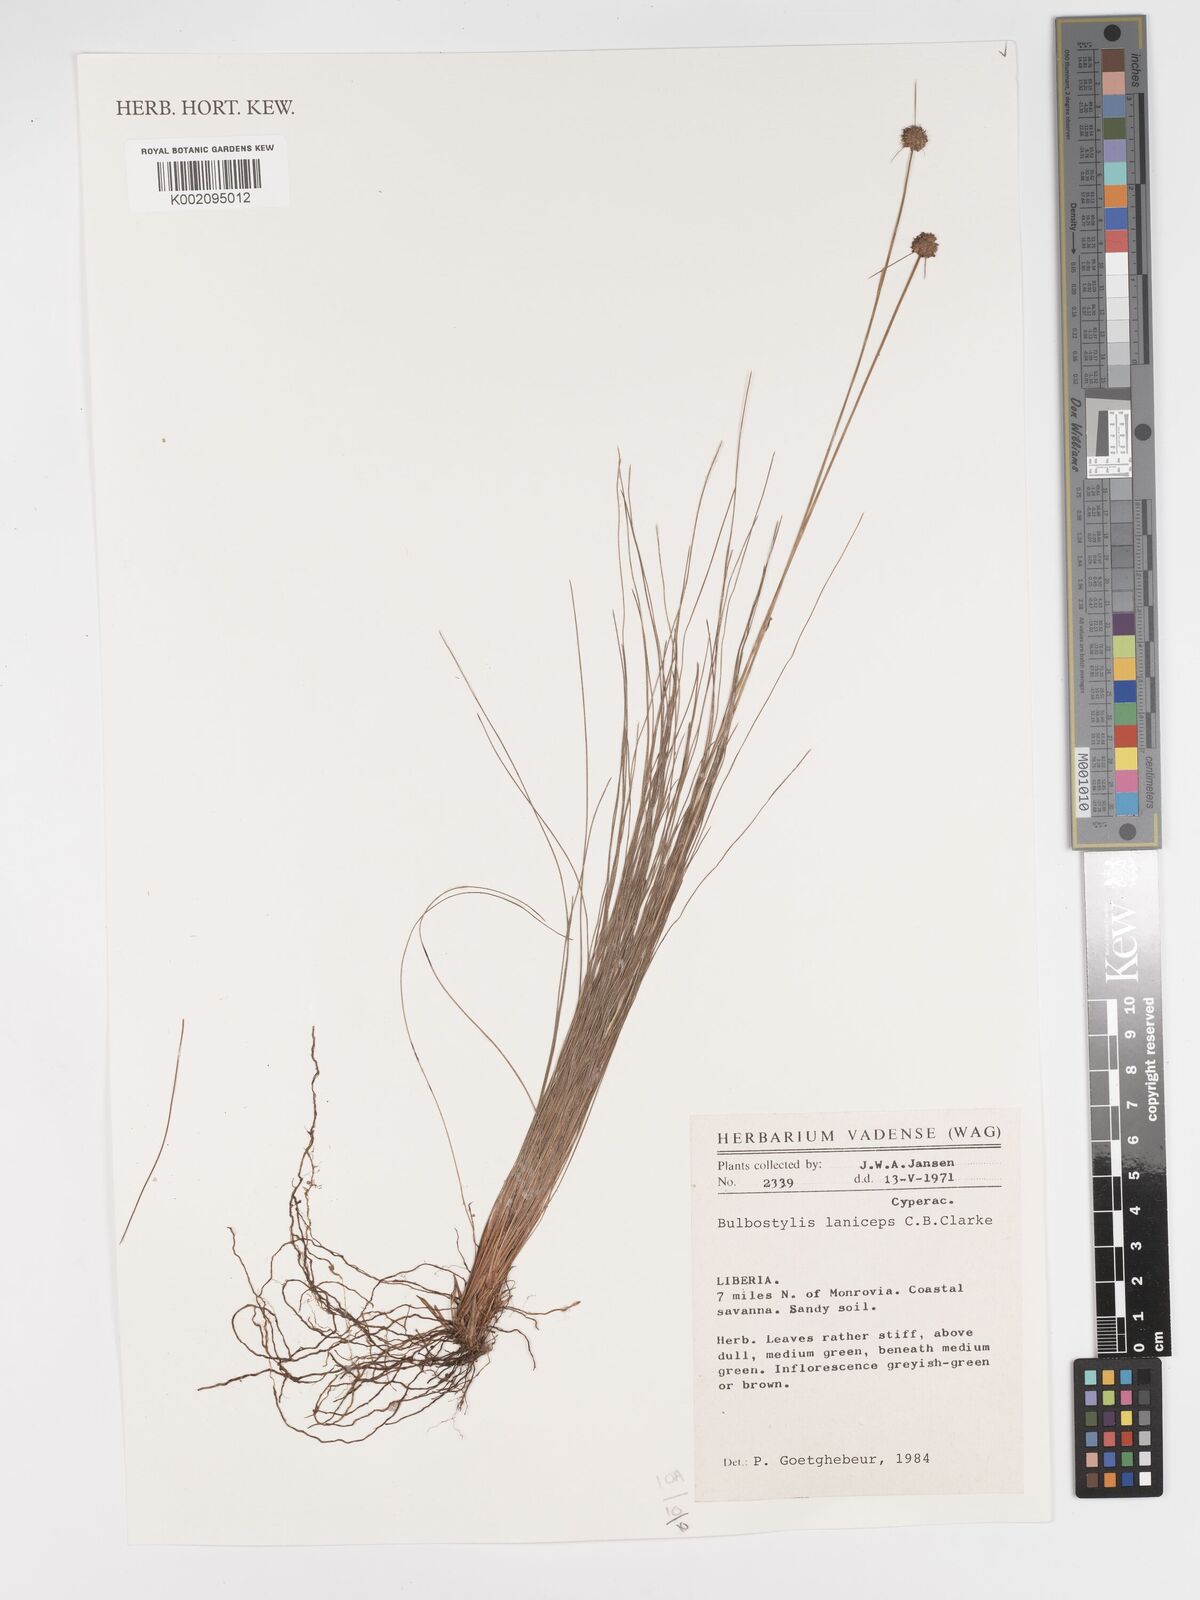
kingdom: Plantae
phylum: Tracheophyta
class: Liliopsida
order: Poales
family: Cyperaceae
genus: Bulbostylis
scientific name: Bulbostylis laniceps
